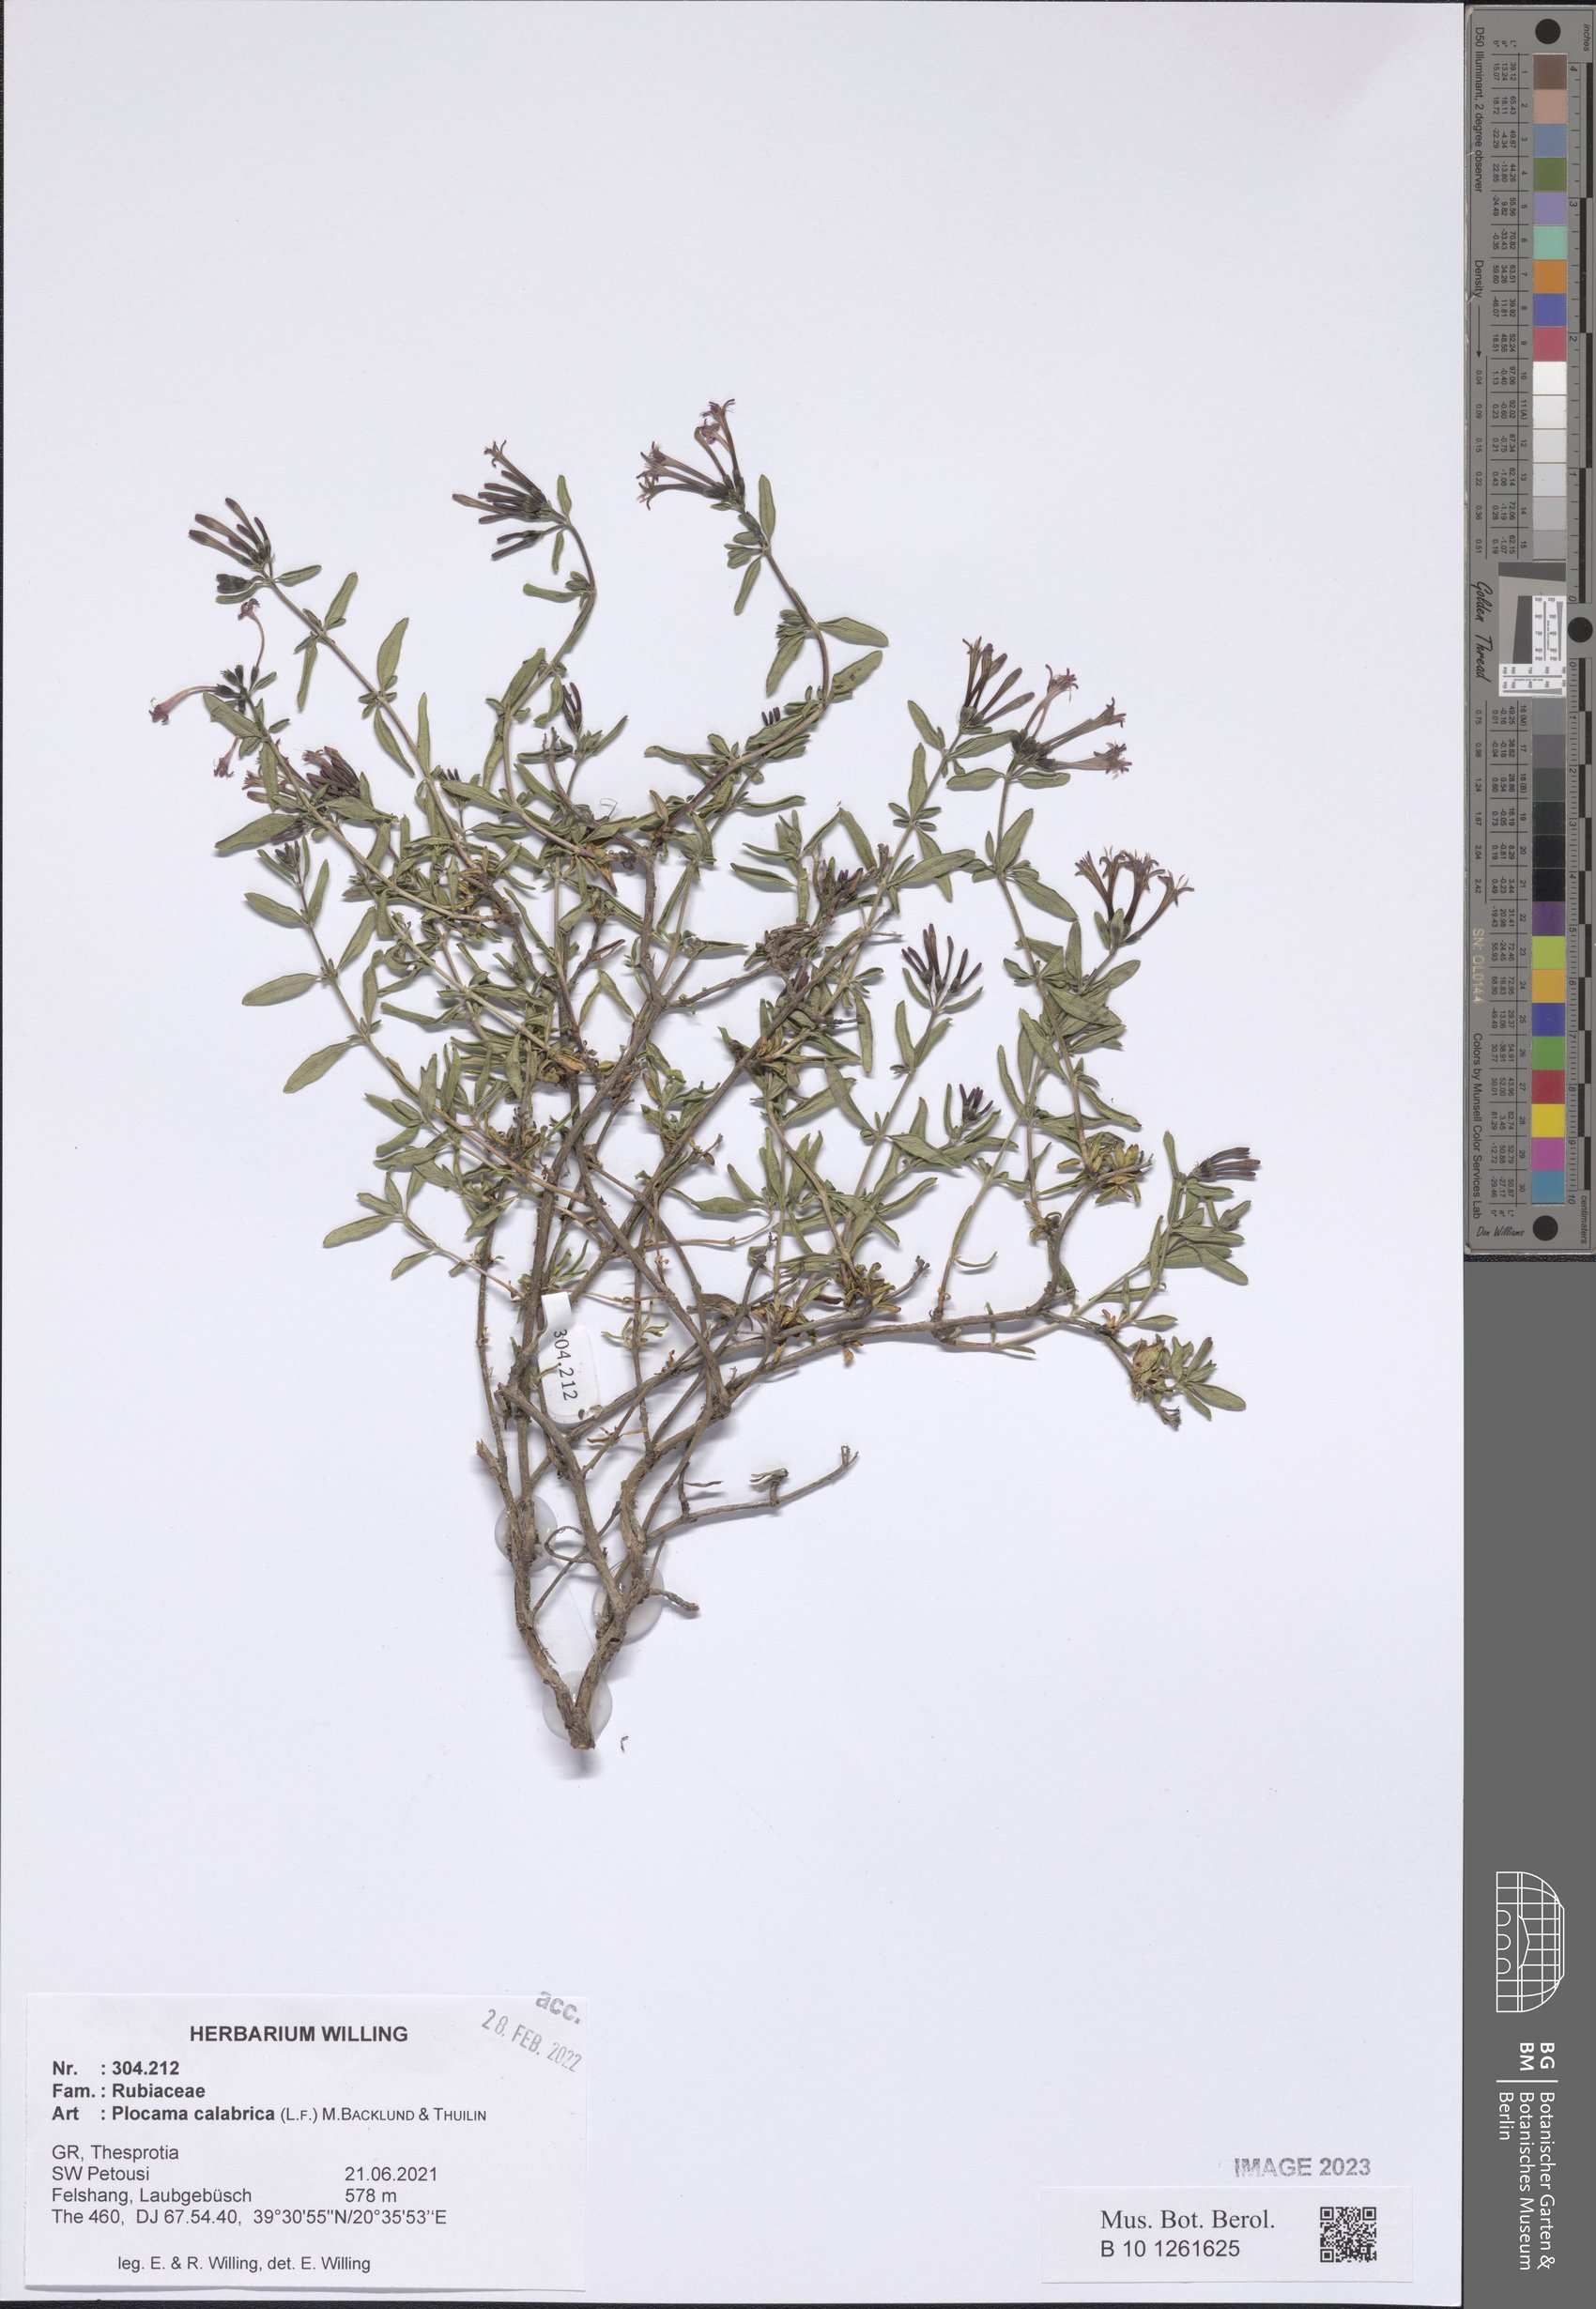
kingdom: Plantae
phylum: Tracheophyta
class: Magnoliopsida
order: Gentianales
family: Rubiaceae
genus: Plocama
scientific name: Plocama calabrica
